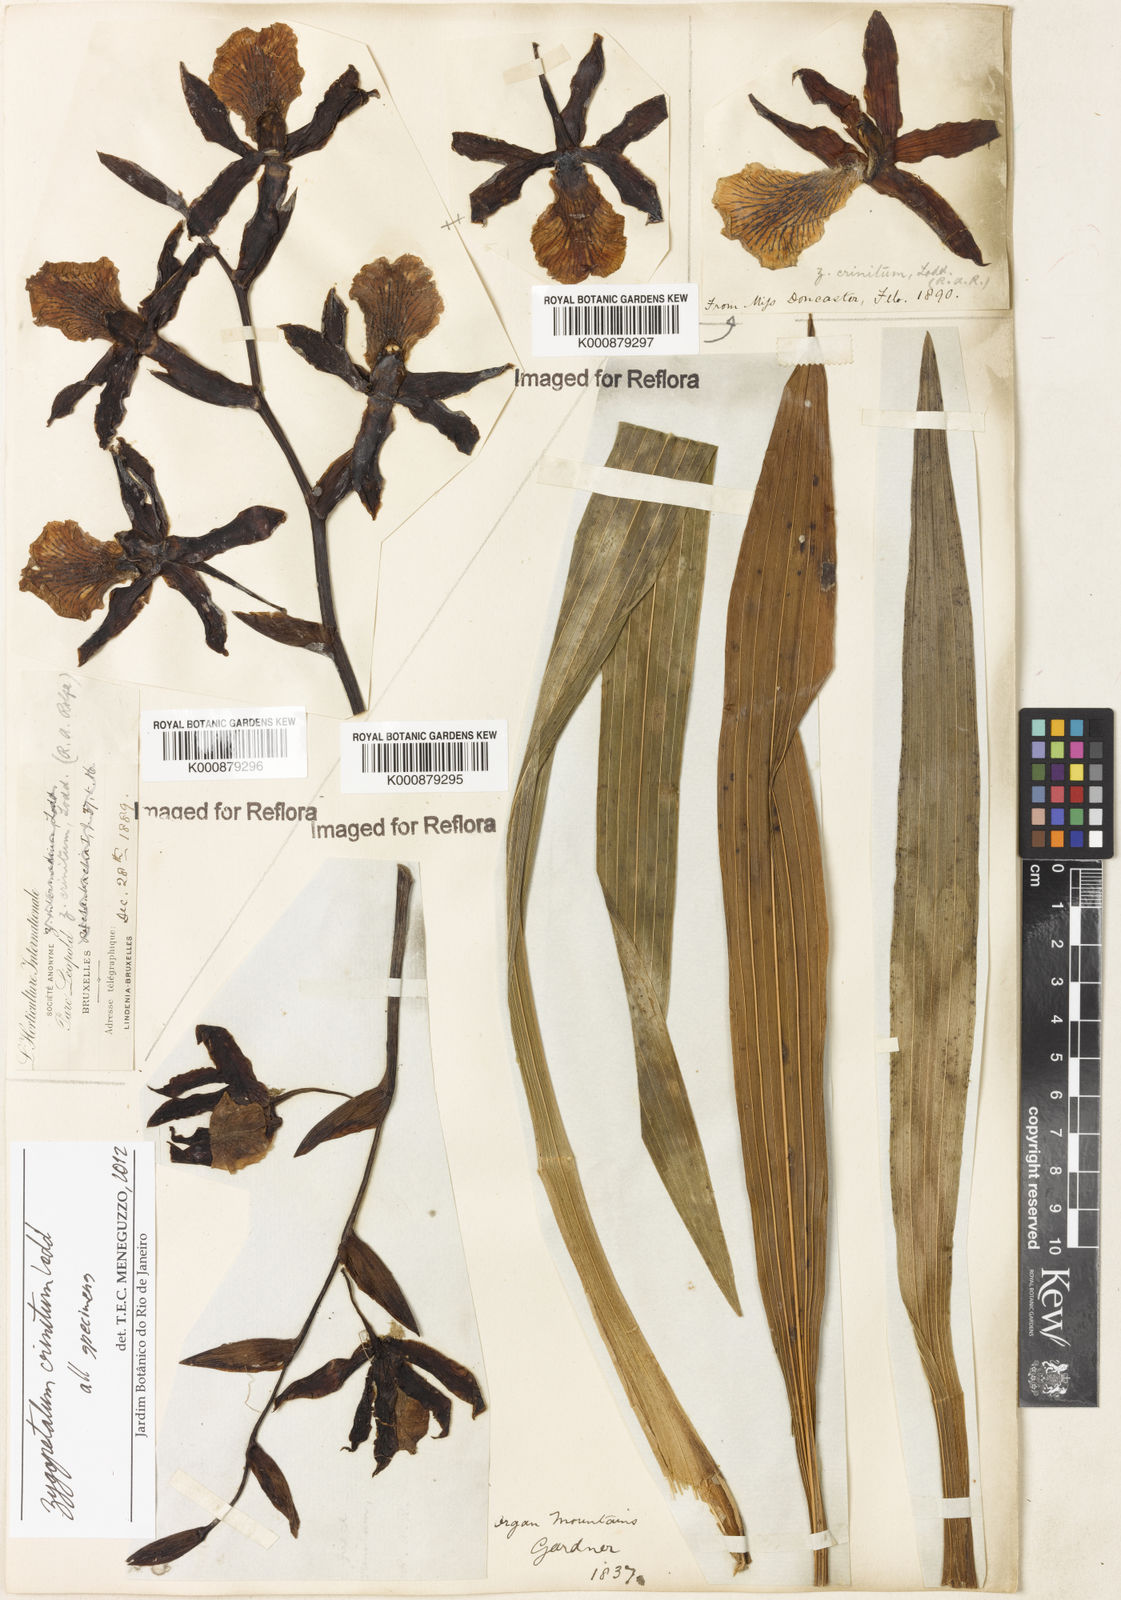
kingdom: Plantae
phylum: Tracheophyta
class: Liliopsida
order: Asparagales
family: Orchidaceae
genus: Zygopetalum
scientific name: Zygopetalum crinitum
